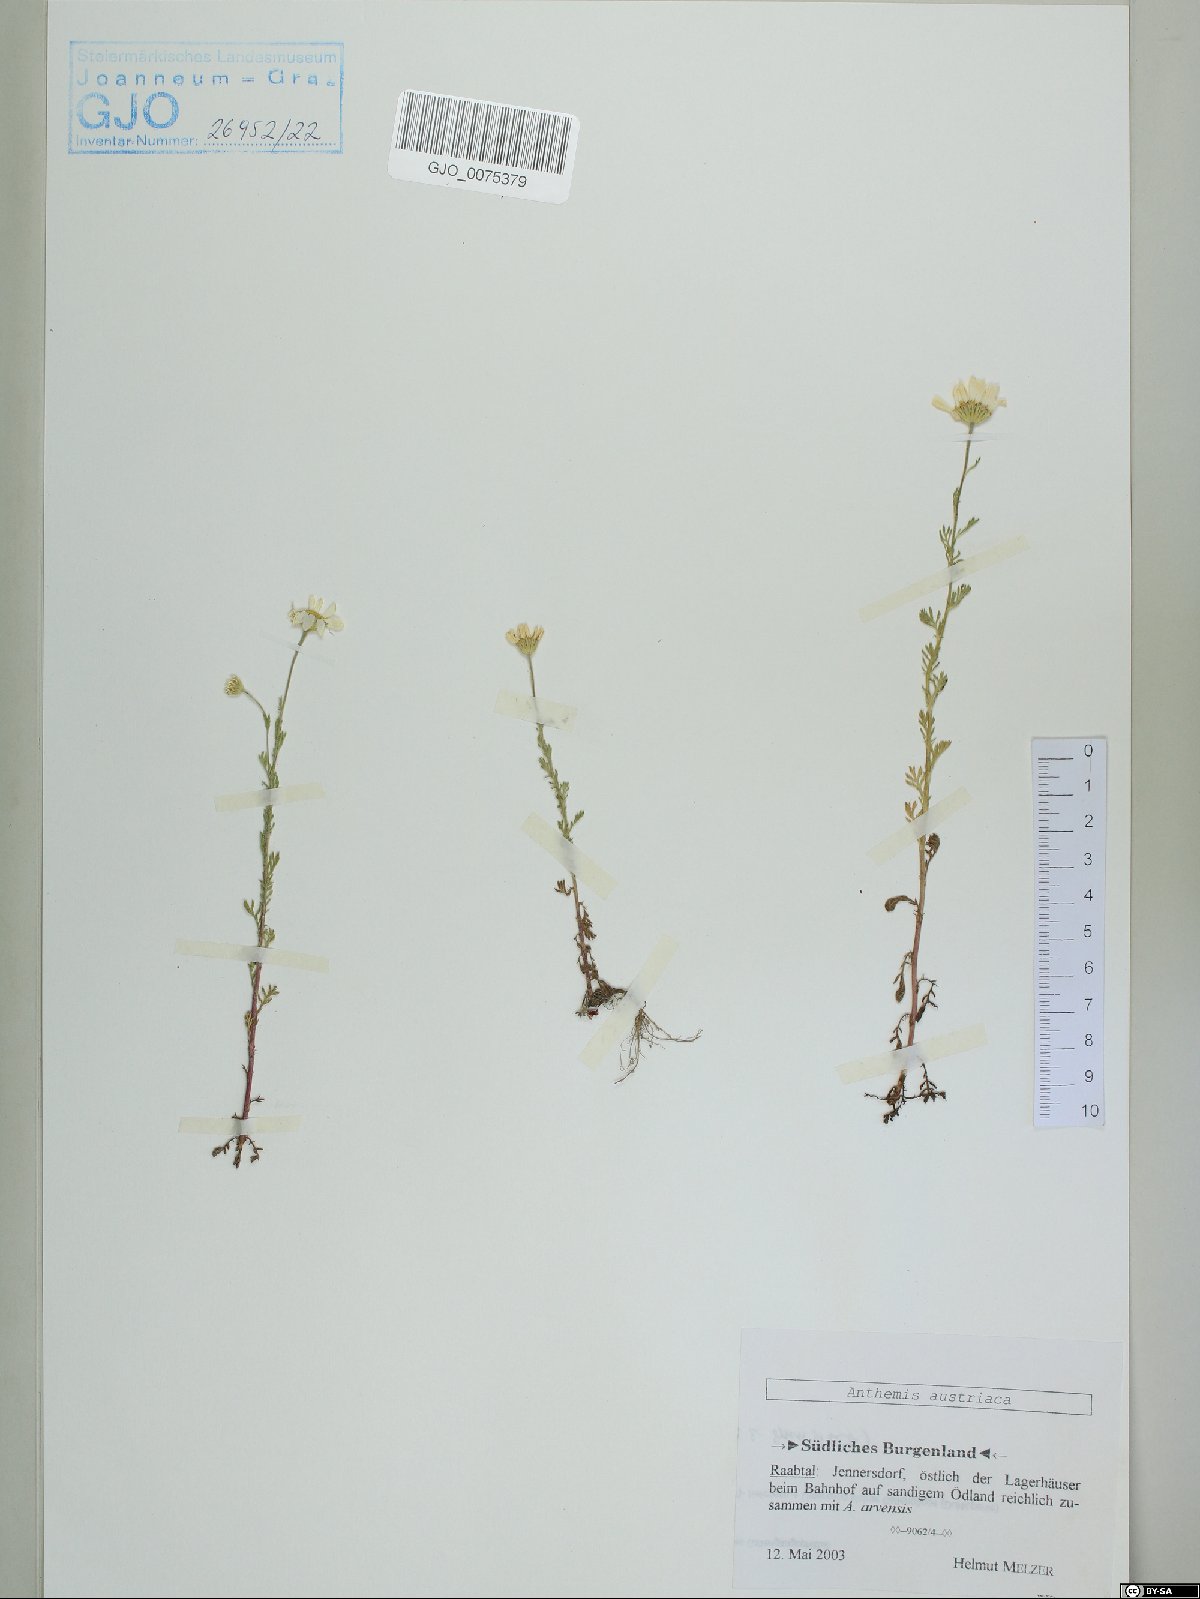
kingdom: Plantae
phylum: Tracheophyta
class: Magnoliopsida
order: Asterales
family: Asteraceae
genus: Cota
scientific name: Cota austriaca
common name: Austrian chamomile
